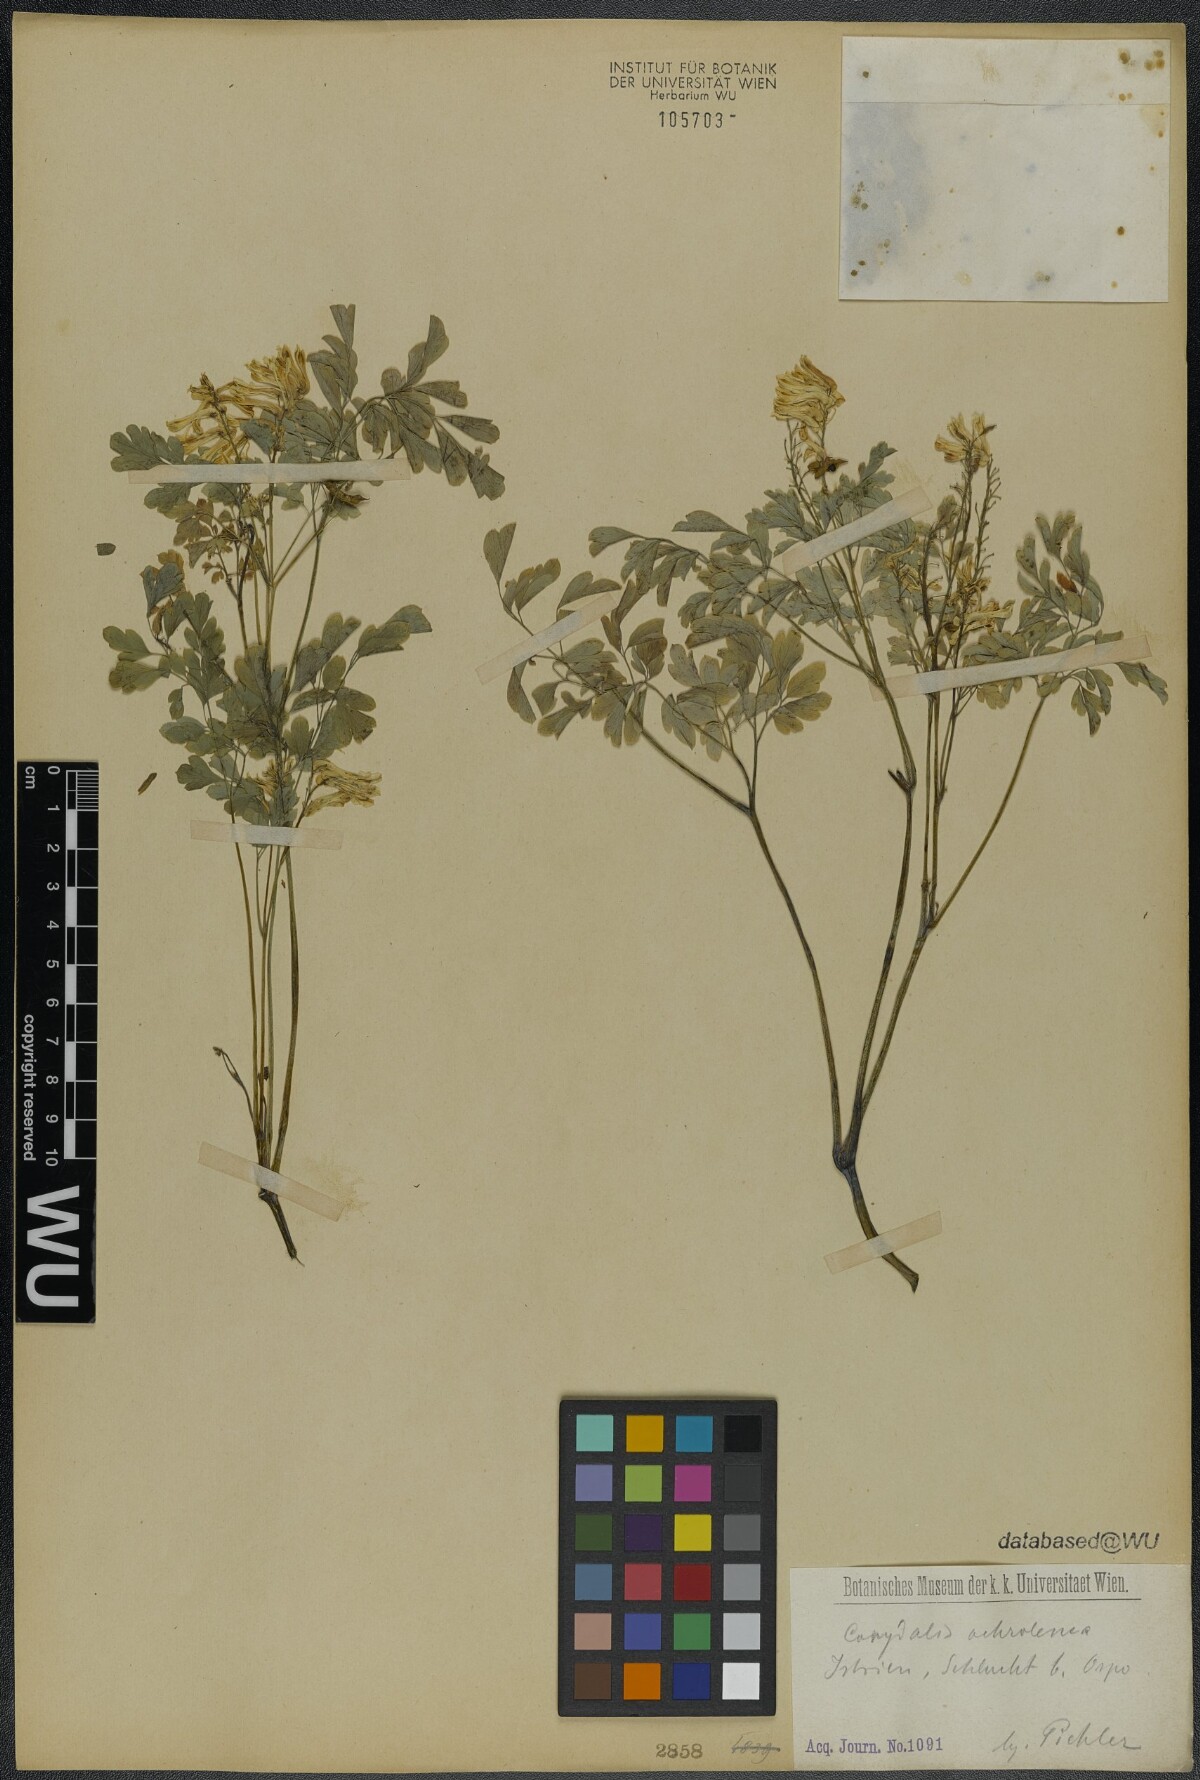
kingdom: Plantae
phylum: Tracheophyta
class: Magnoliopsida
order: Ranunculales
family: Papaveraceae
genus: Pseudofumaria
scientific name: Pseudofumaria alba
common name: Pale corydalis
